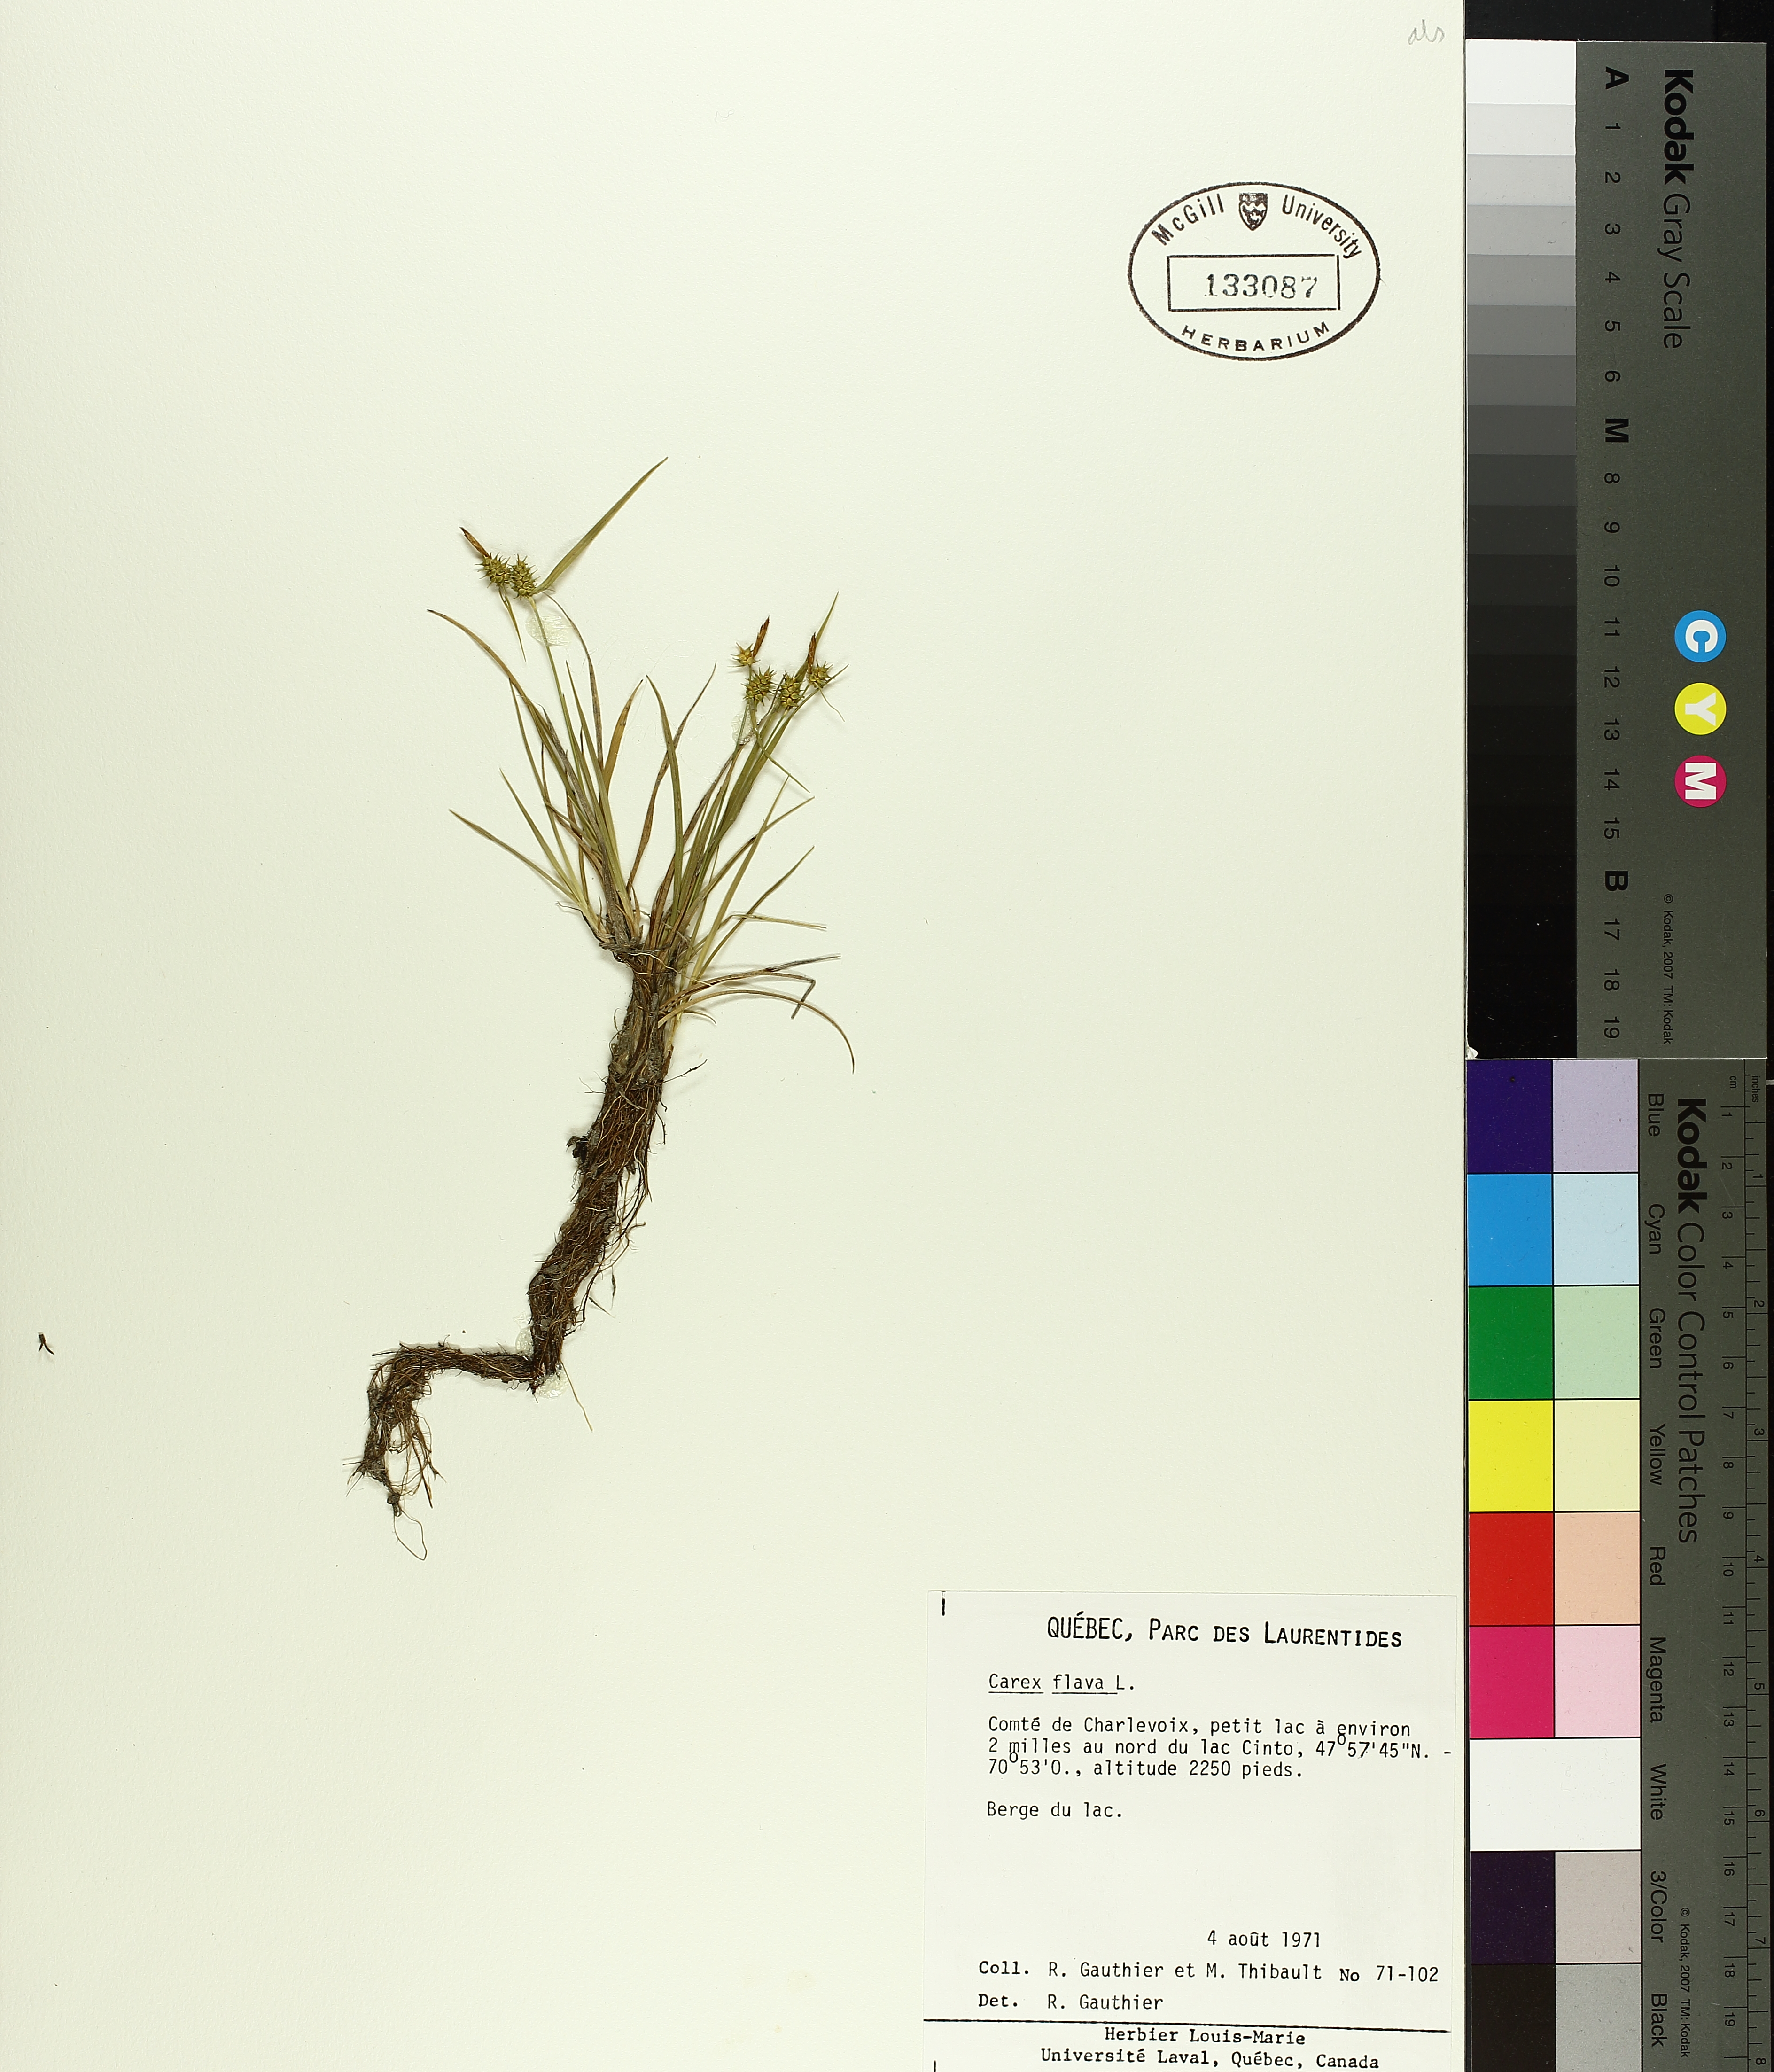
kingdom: Plantae
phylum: Tracheophyta
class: Liliopsida
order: Poales
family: Cyperaceae
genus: Carex
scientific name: Carex flava
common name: Large yellow-sedge
